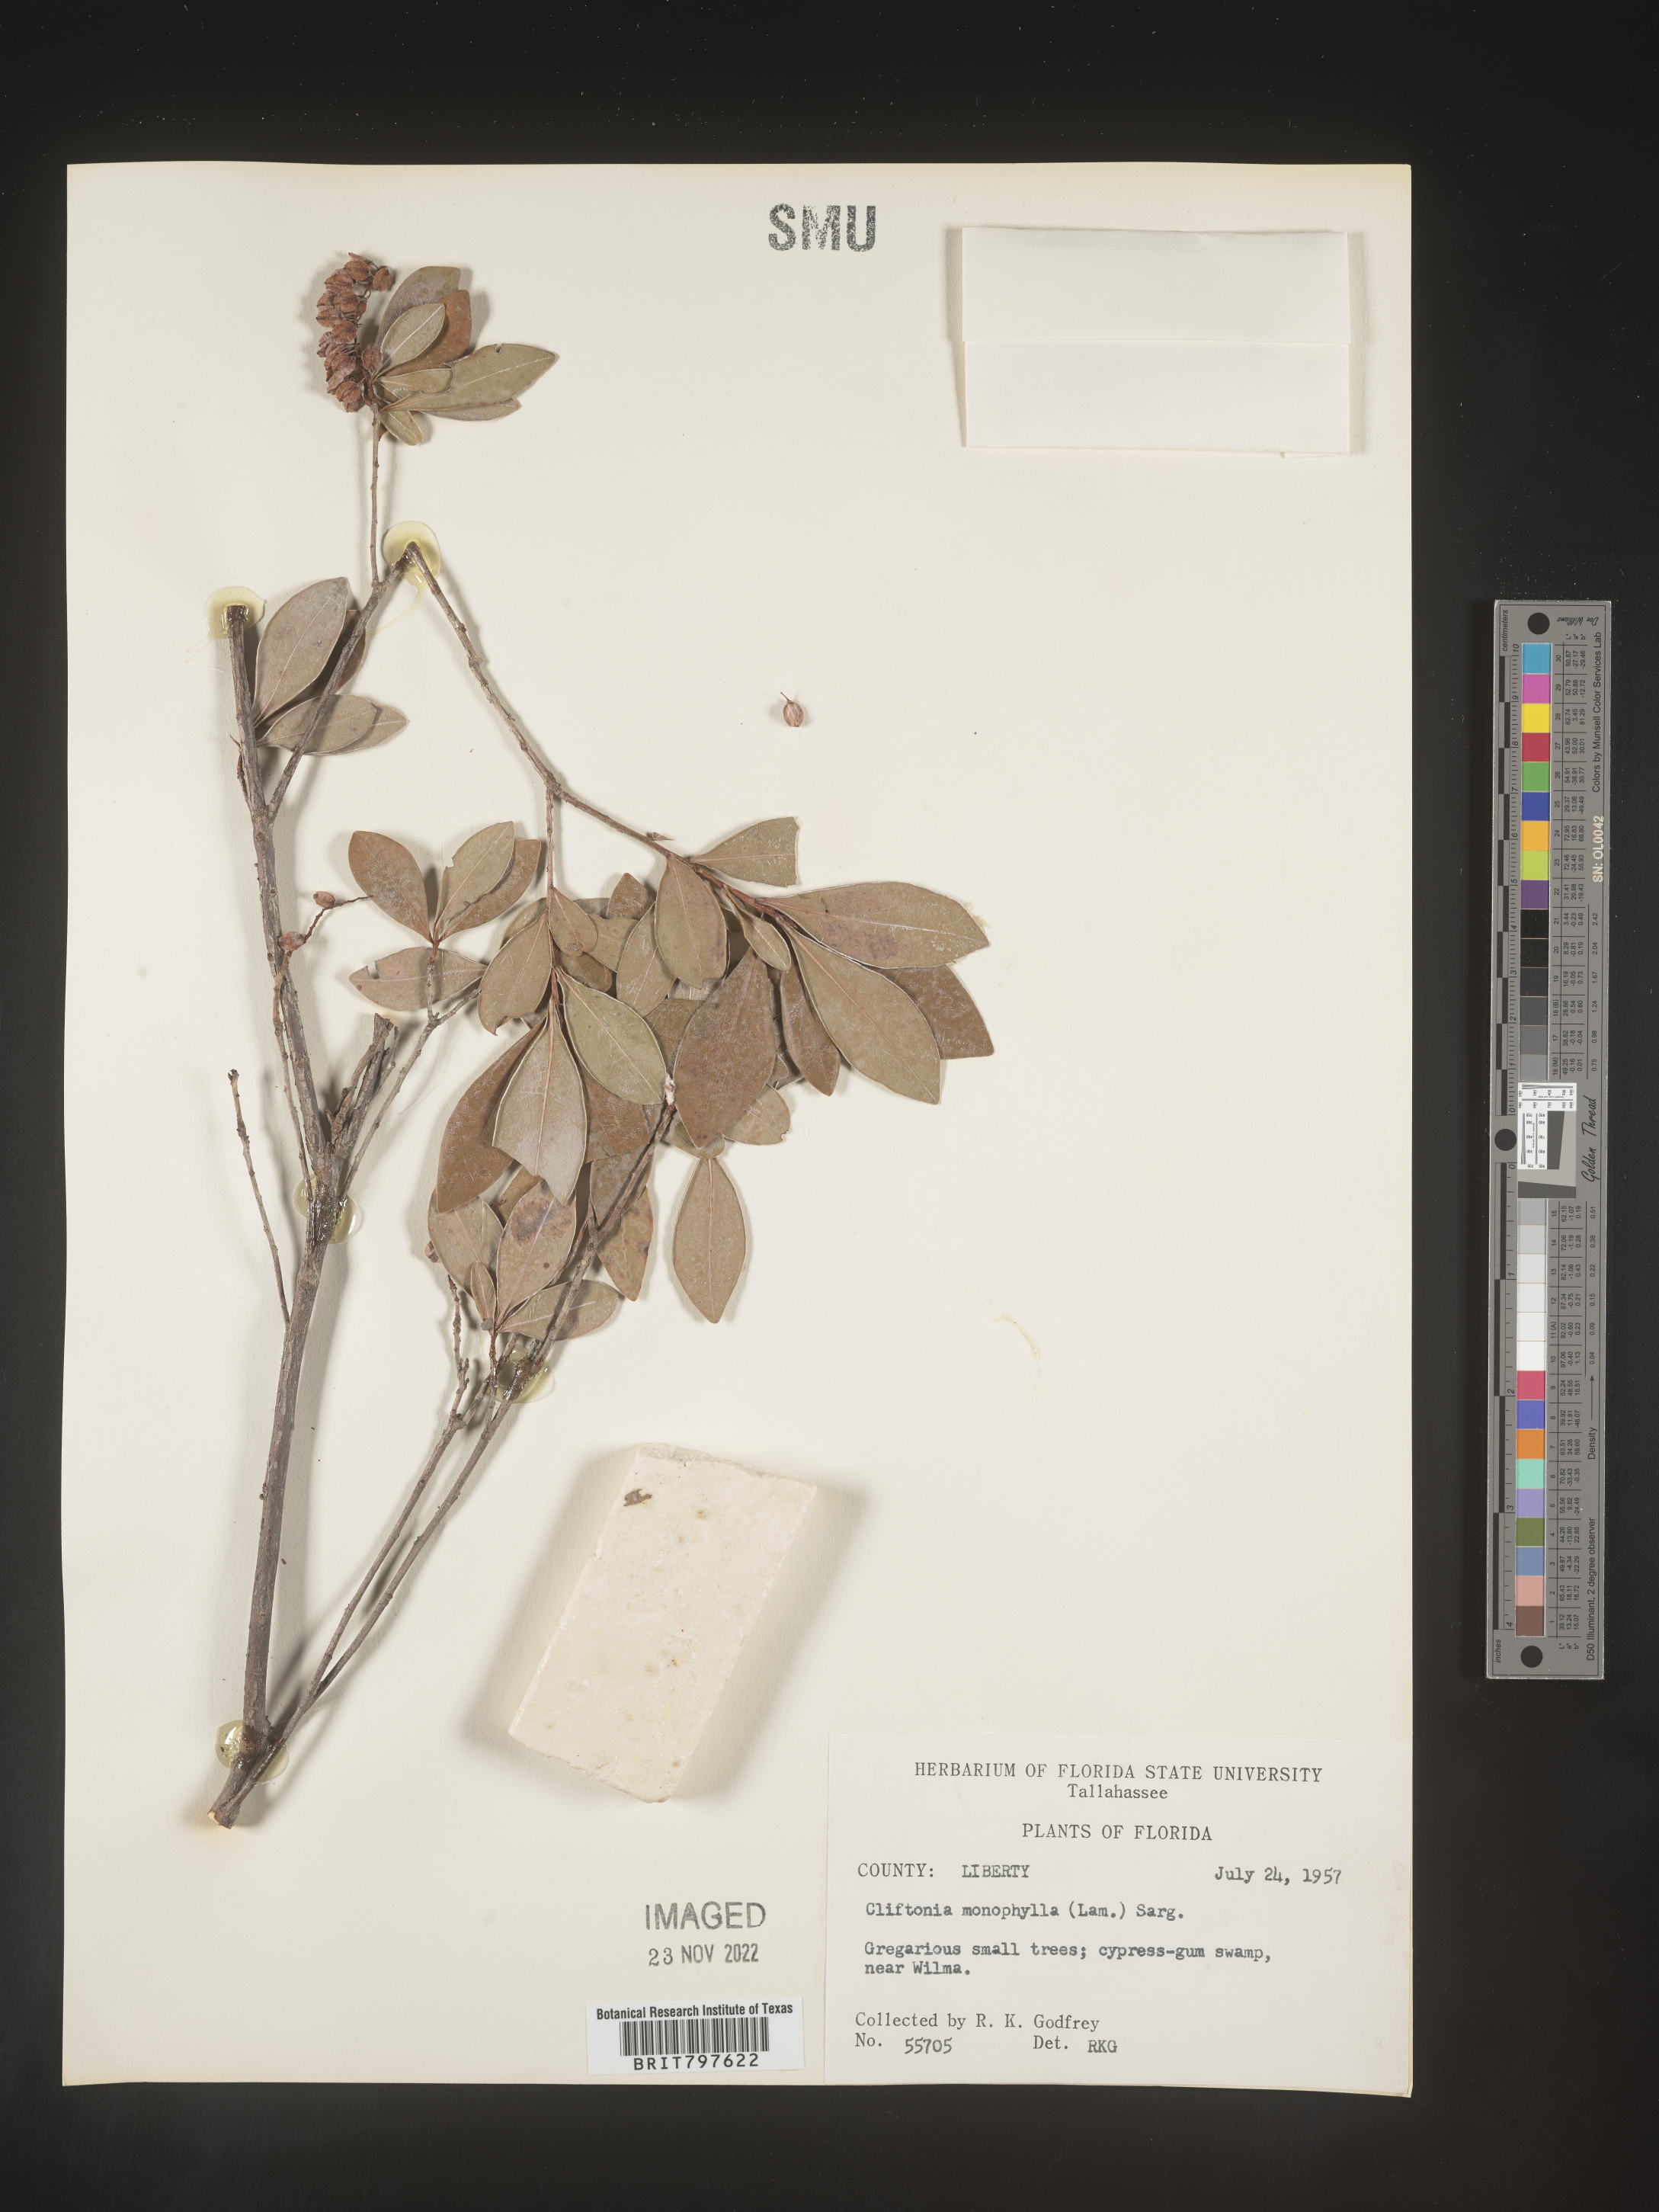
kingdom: Plantae
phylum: Tracheophyta
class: Magnoliopsida
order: Ericales
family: Cyrillaceae
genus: Cliftonia
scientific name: Cliftonia monophylla
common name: Titi
